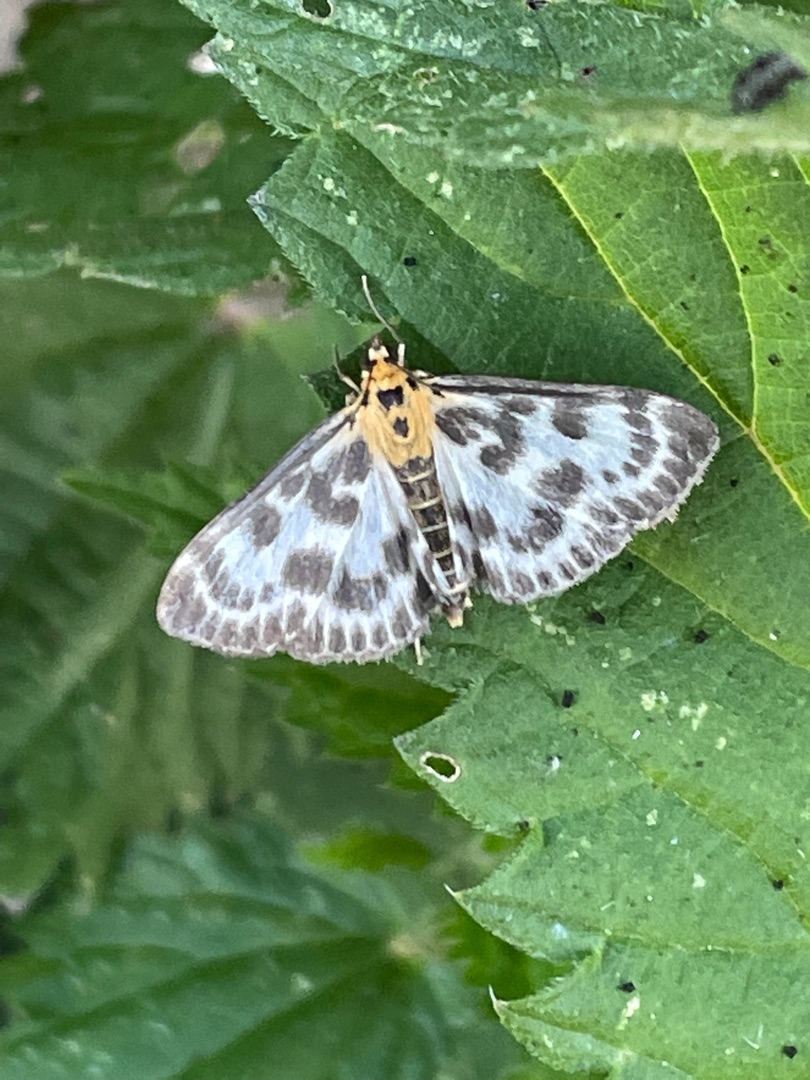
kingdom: Animalia
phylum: Arthropoda
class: Insecta
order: Lepidoptera
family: Crambidae
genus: Anania
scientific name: Anania hortulata
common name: Nældehalvmøl
